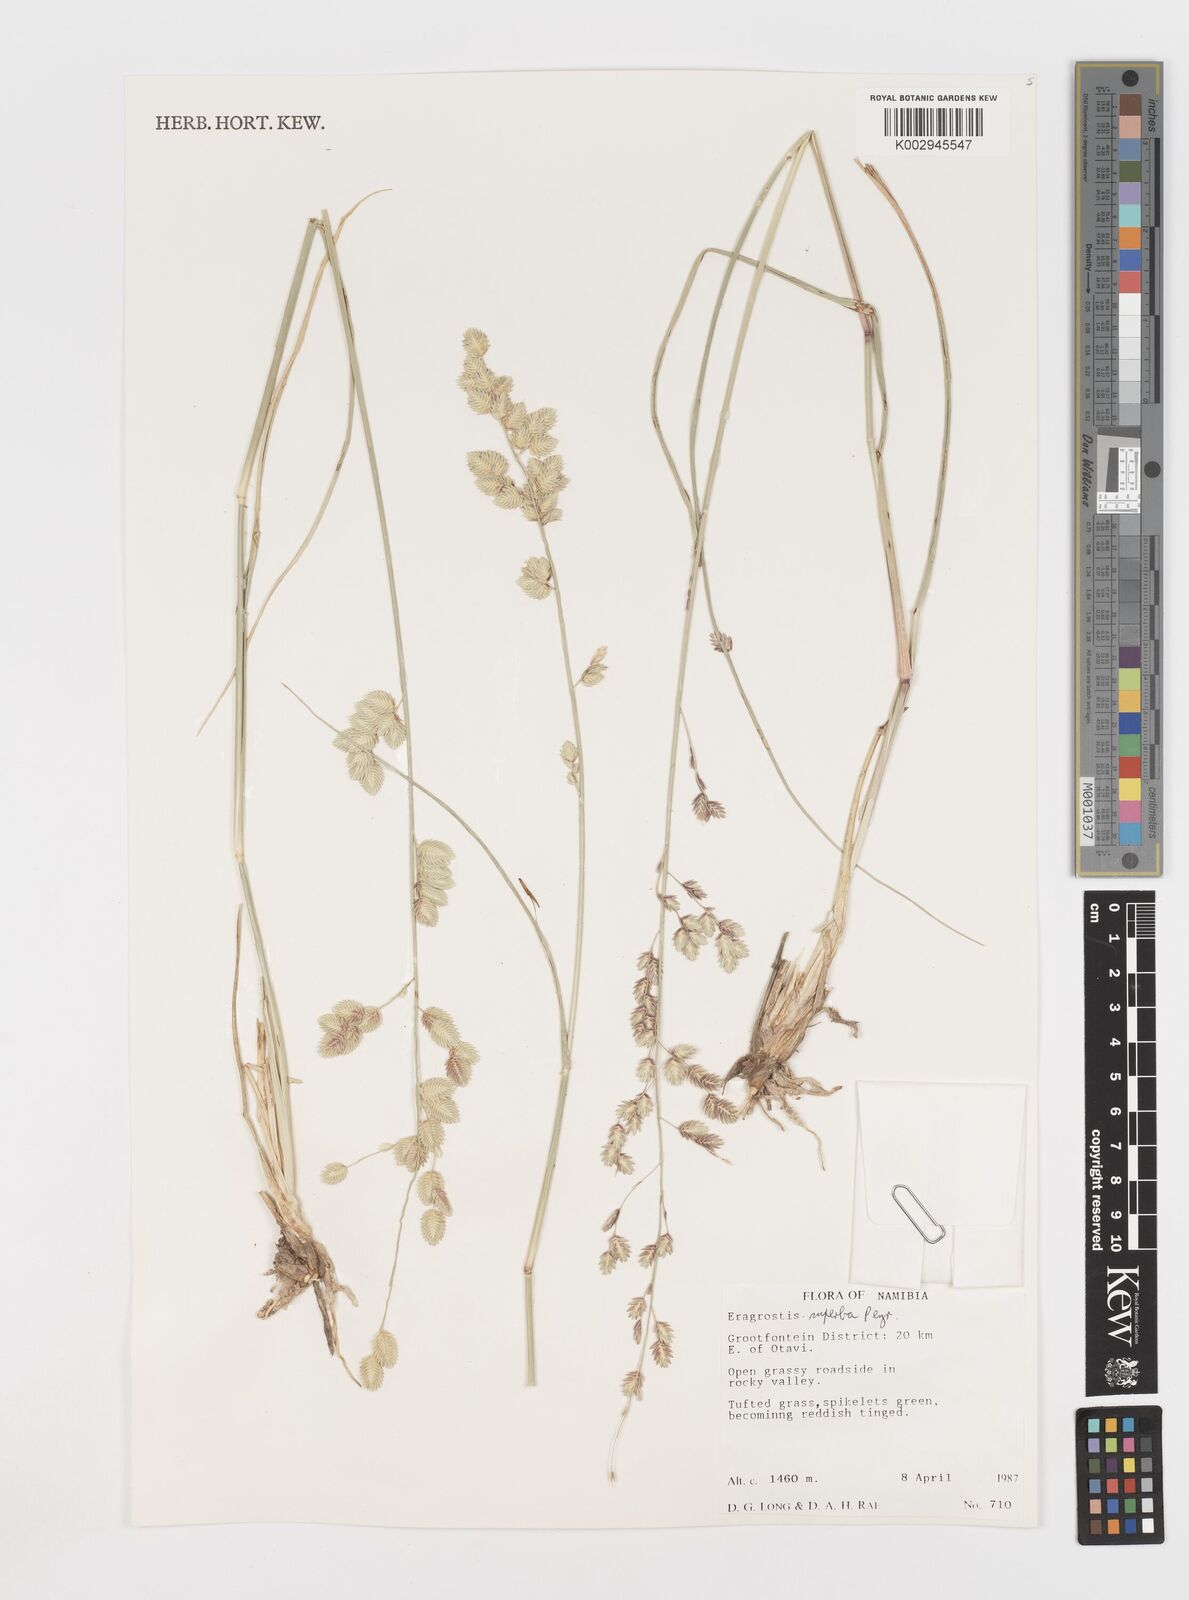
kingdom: Plantae
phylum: Tracheophyta
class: Liliopsida
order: Poales
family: Poaceae
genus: Eragrostis
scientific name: Eragrostis superba
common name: Wilman lovegrass
